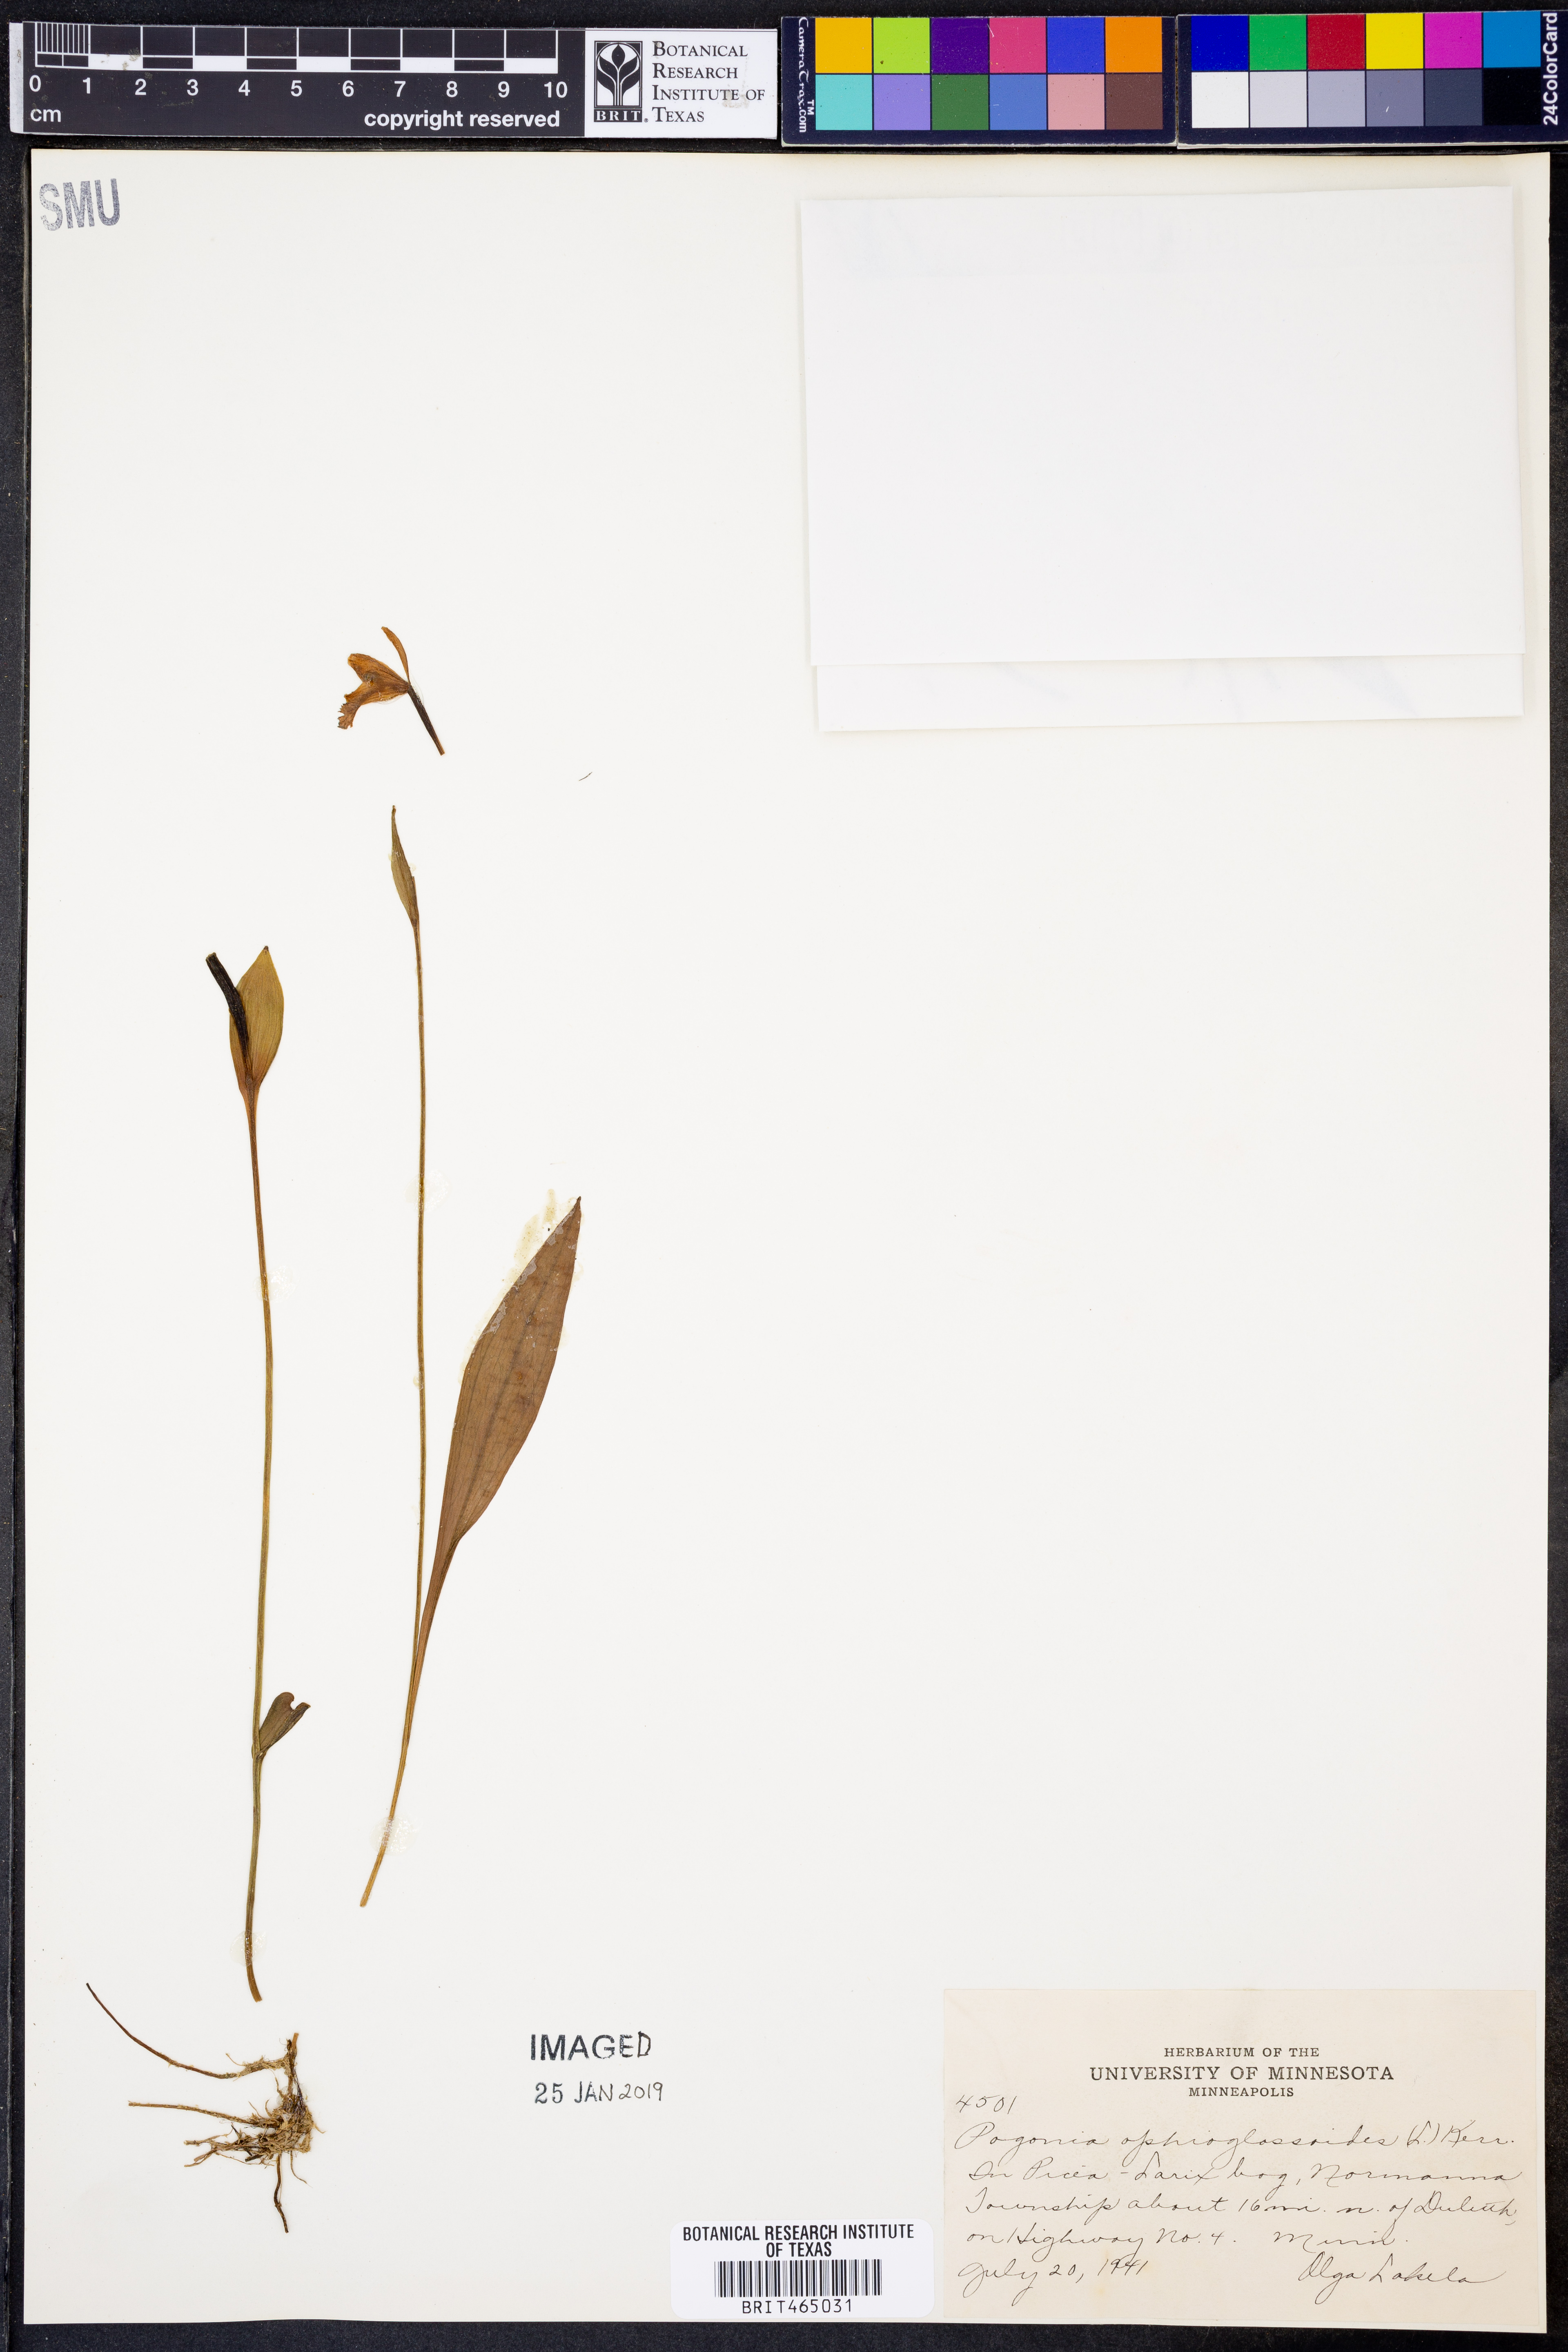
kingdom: Plantae
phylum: Tracheophyta
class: Liliopsida
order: Asparagales
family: Orchidaceae
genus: Pogonia
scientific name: Pogonia ophioglossoides
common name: Rose pogonia
